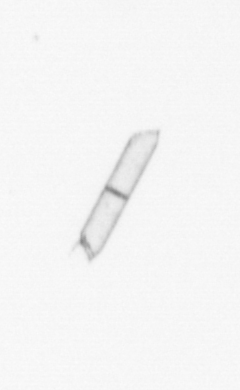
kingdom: Chromista
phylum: Ochrophyta
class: Bacillariophyceae
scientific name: Bacillariophyceae
